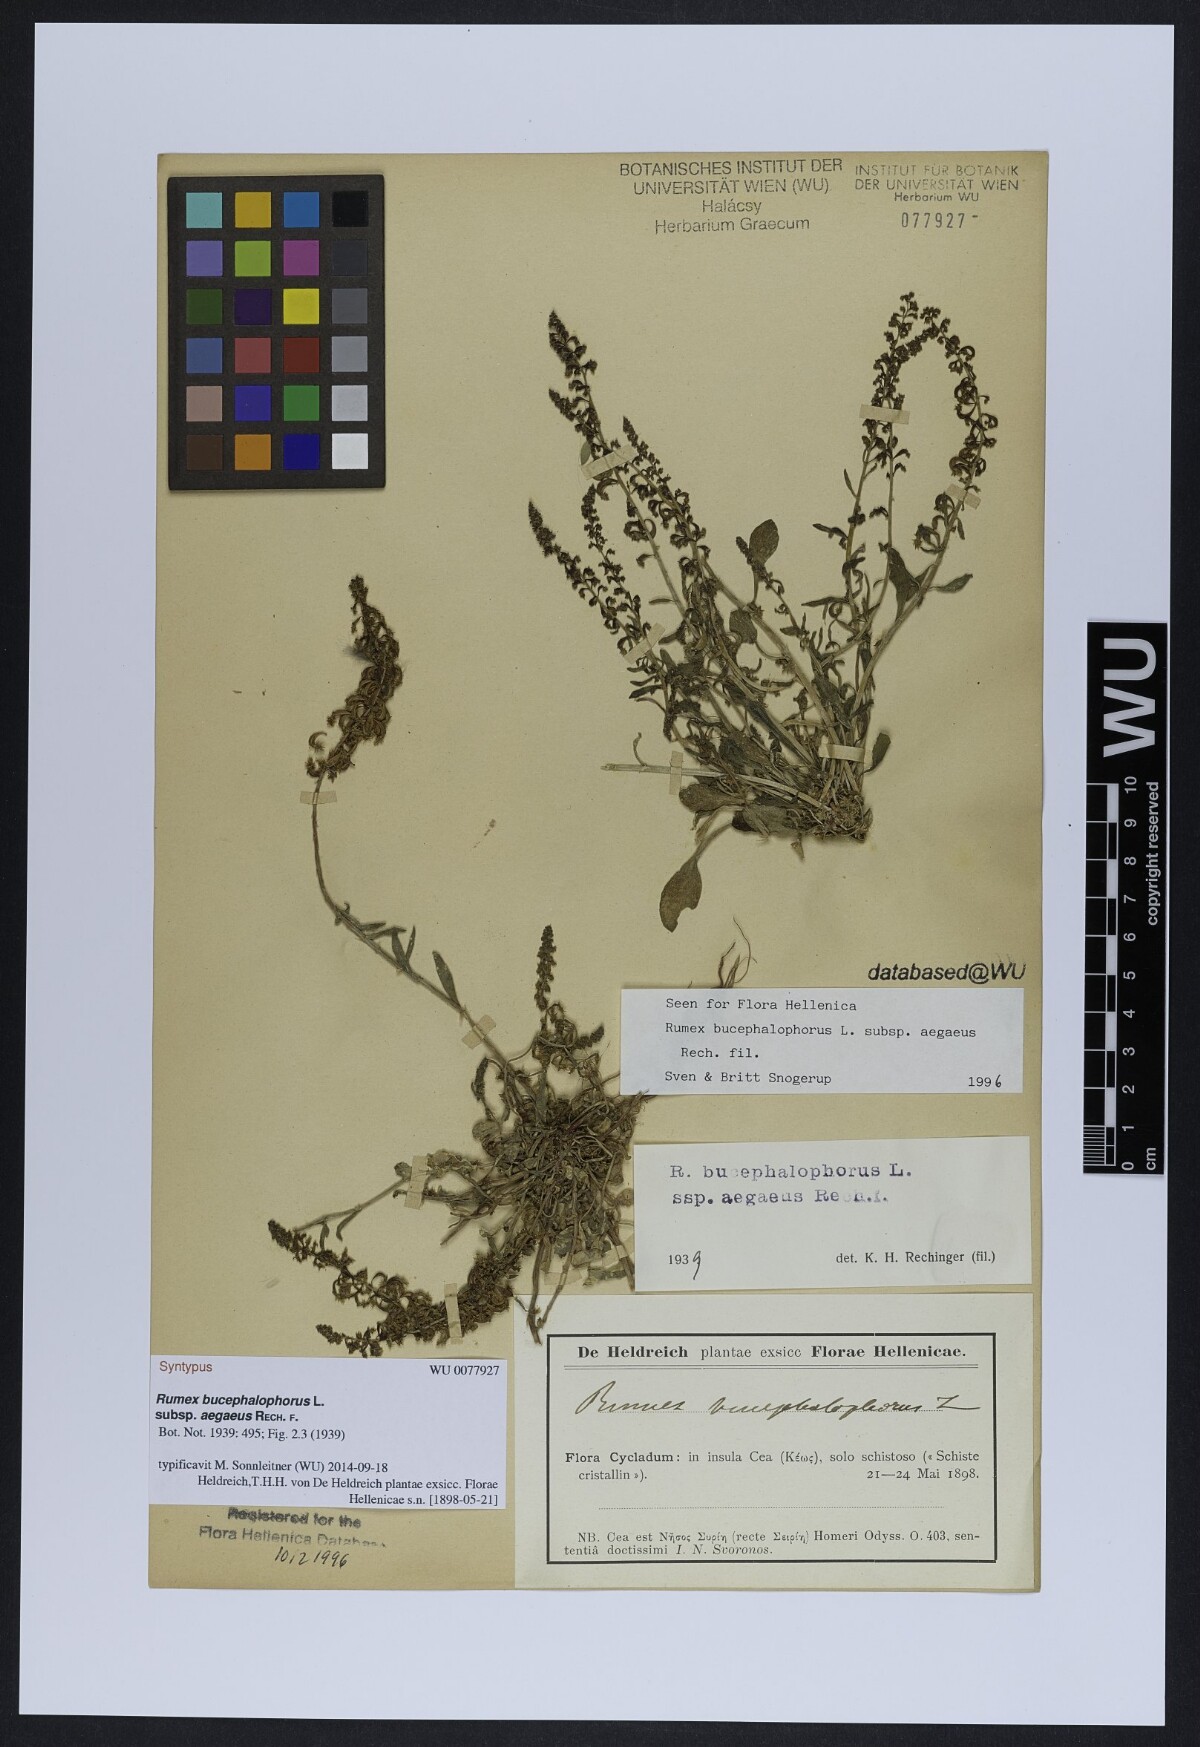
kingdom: Plantae
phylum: Tracheophyta
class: Magnoliopsida
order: Caryophyllales
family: Polygonaceae
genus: Rumex
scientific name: Rumex bucephalophorus
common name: Red dock
